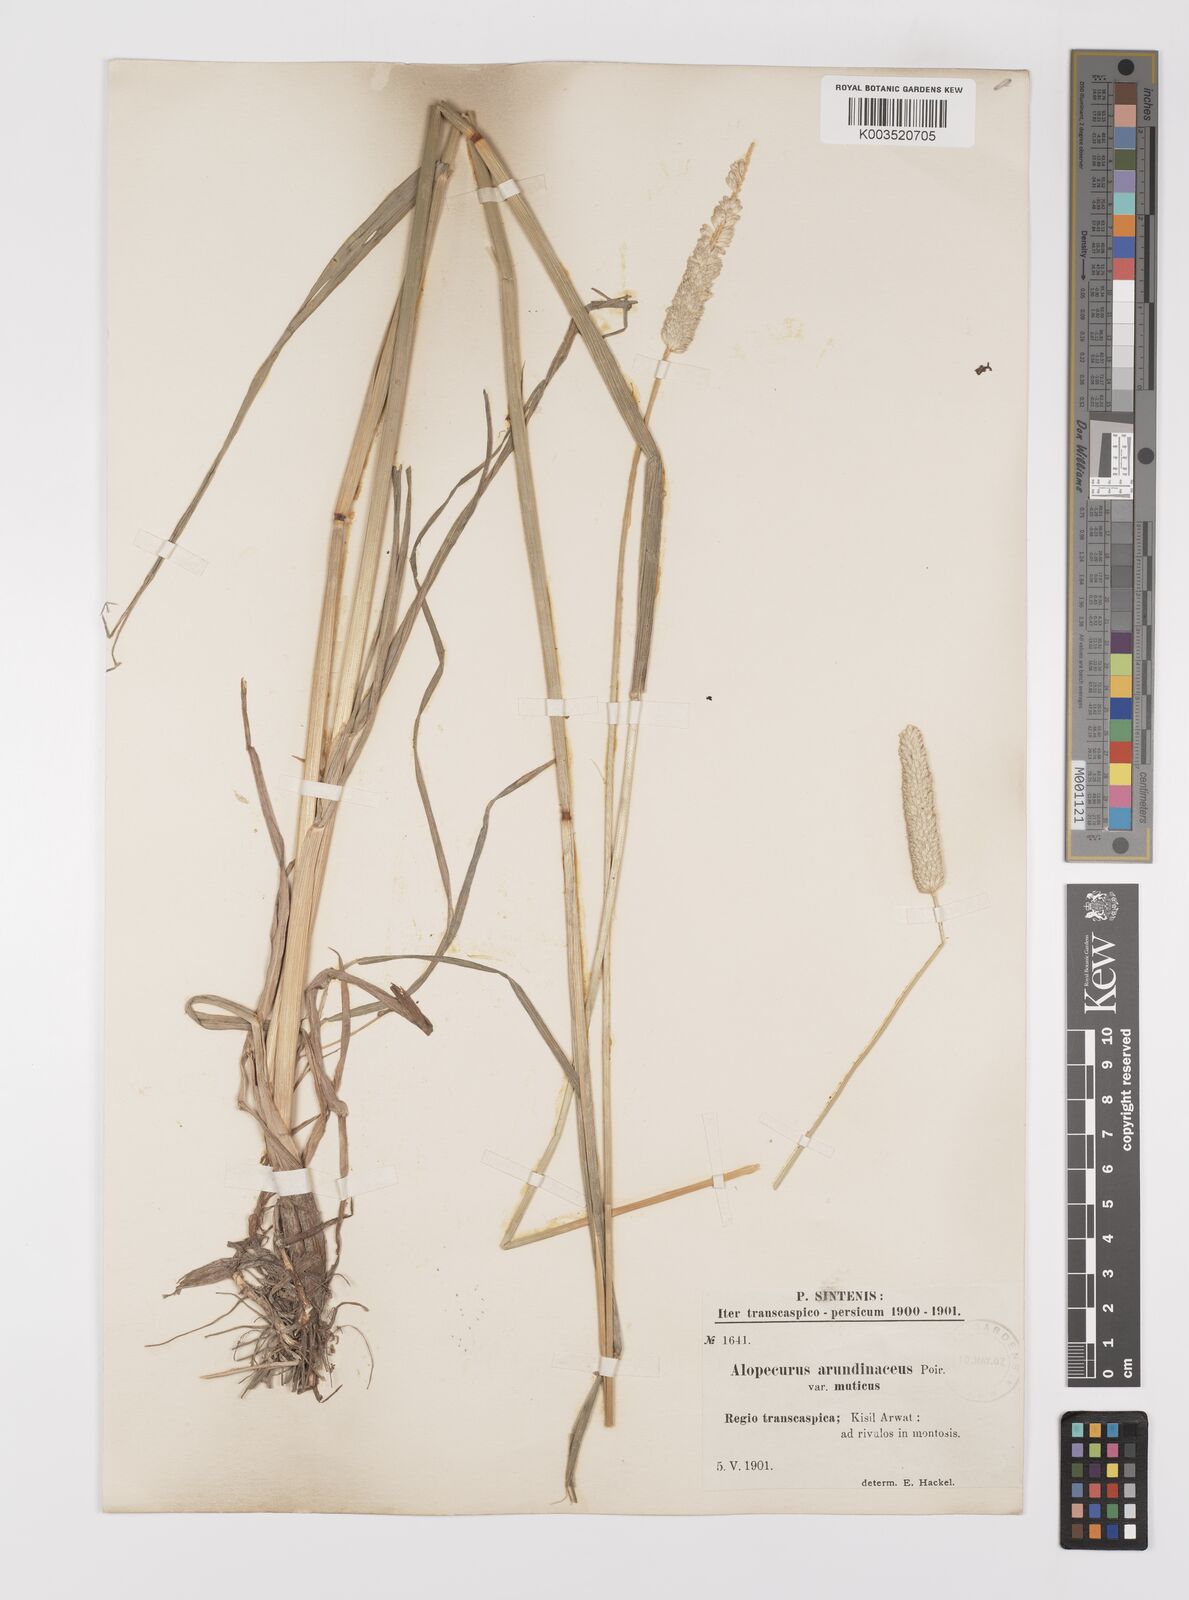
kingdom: Plantae
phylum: Tracheophyta
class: Liliopsida
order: Poales
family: Poaceae
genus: Alopecurus
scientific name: Alopecurus arundinaceus
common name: Creeping meadow foxtail
